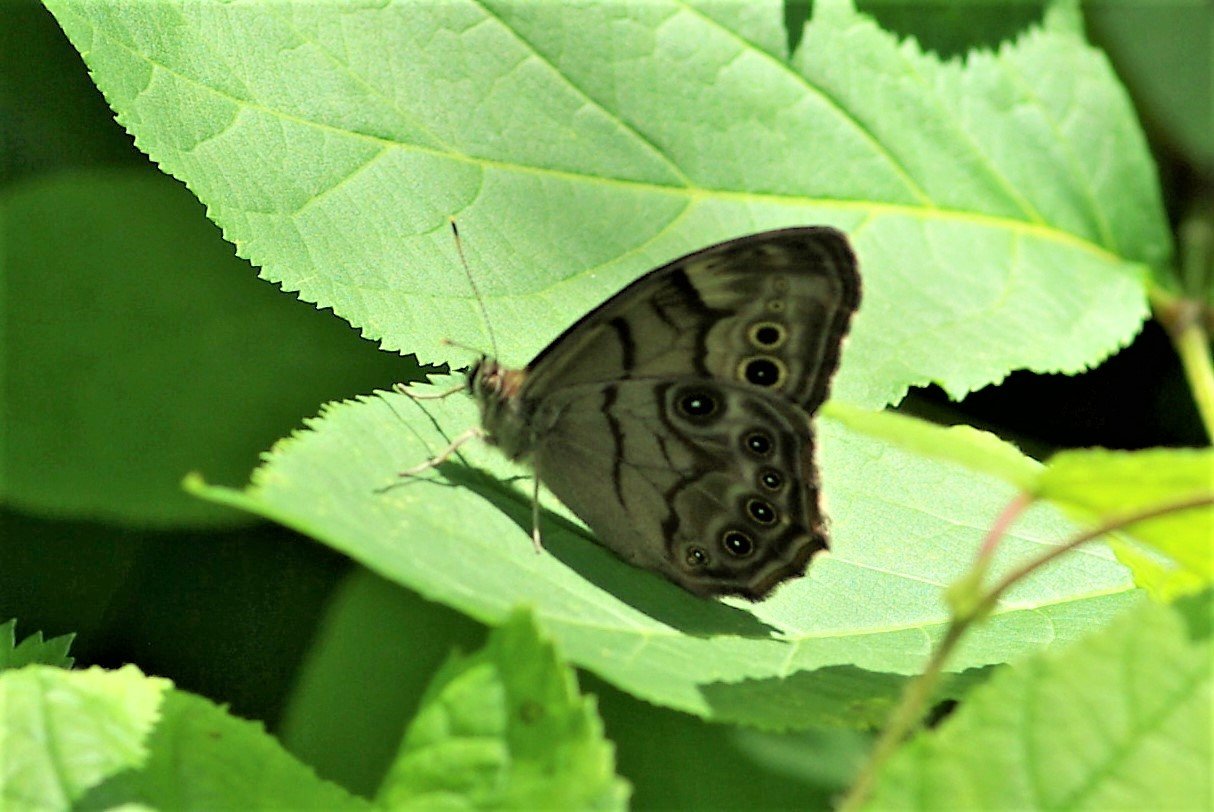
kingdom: Animalia
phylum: Arthropoda
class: Insecta
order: Lepidoptera
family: Nymphalidae
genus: Lethe
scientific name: Lethe anthedon
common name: Northern Pearly-Eye
